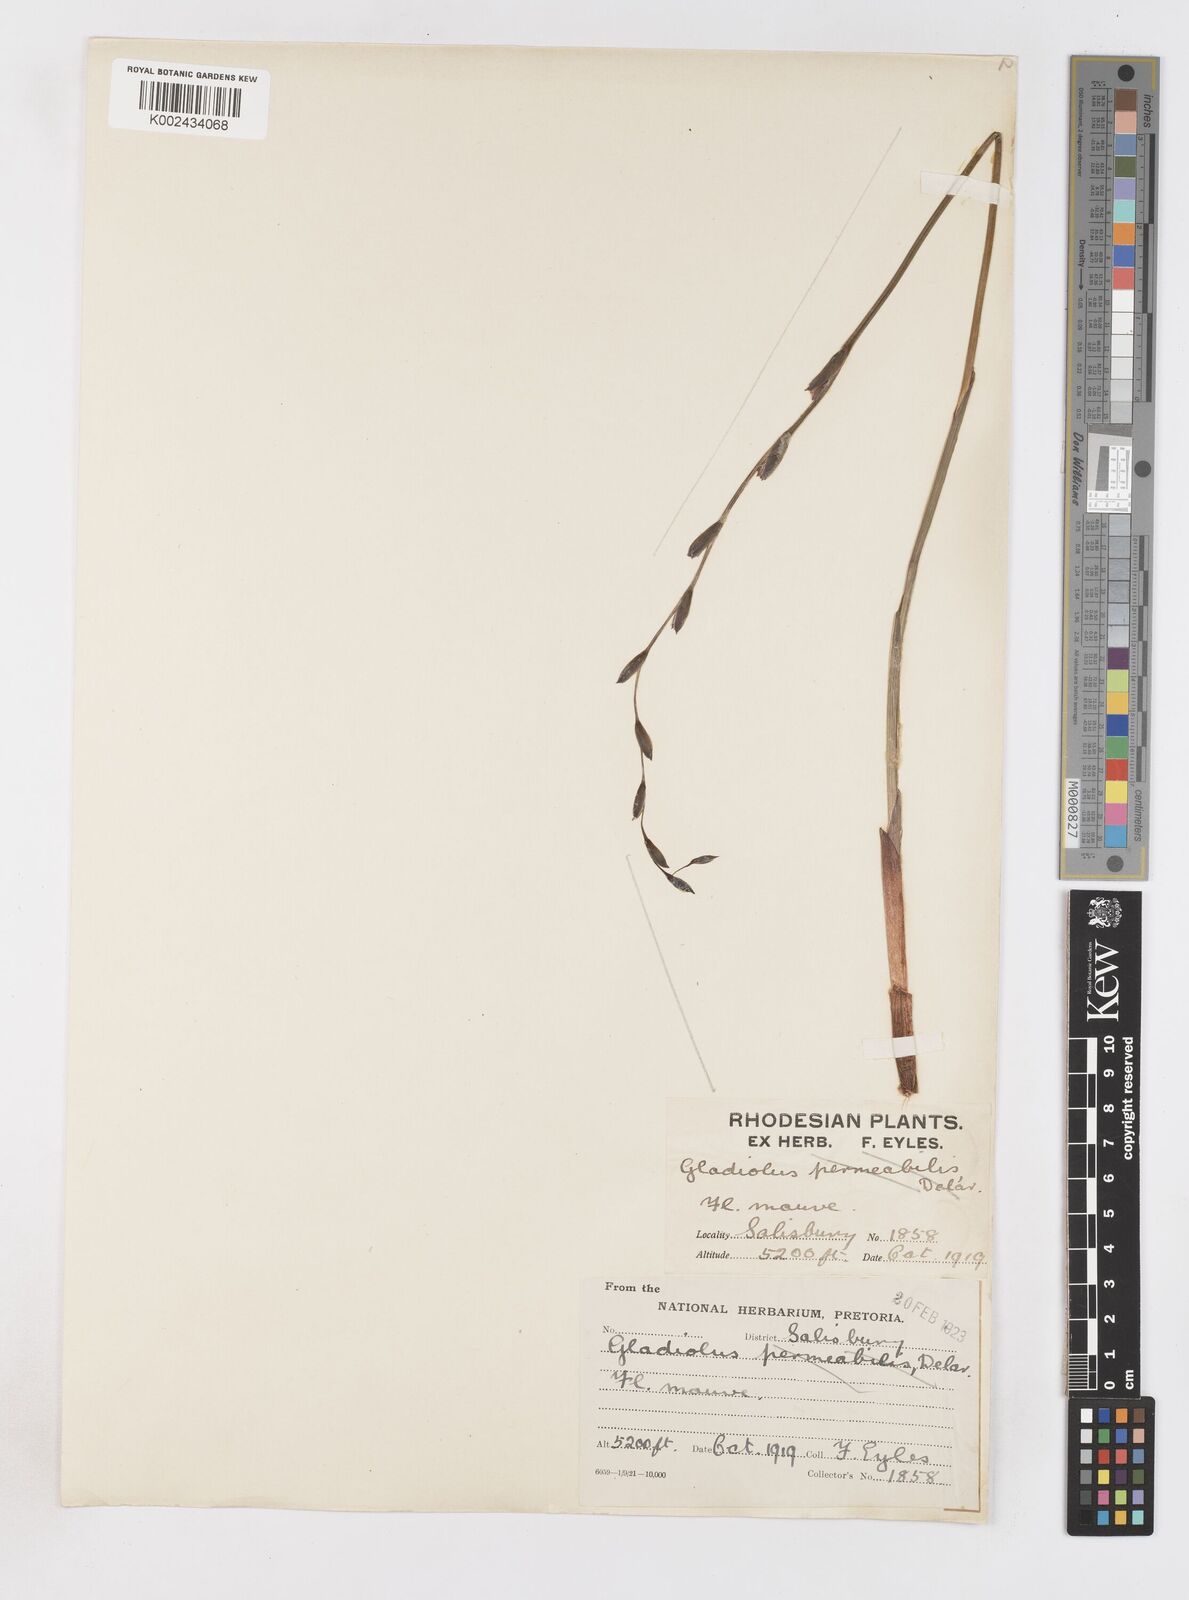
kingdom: Plantae
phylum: Tracheophyta
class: Liliopsida
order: Asparagales
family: Iridaceae
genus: Gladiolus
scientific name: Gladiolus atropurpureus
